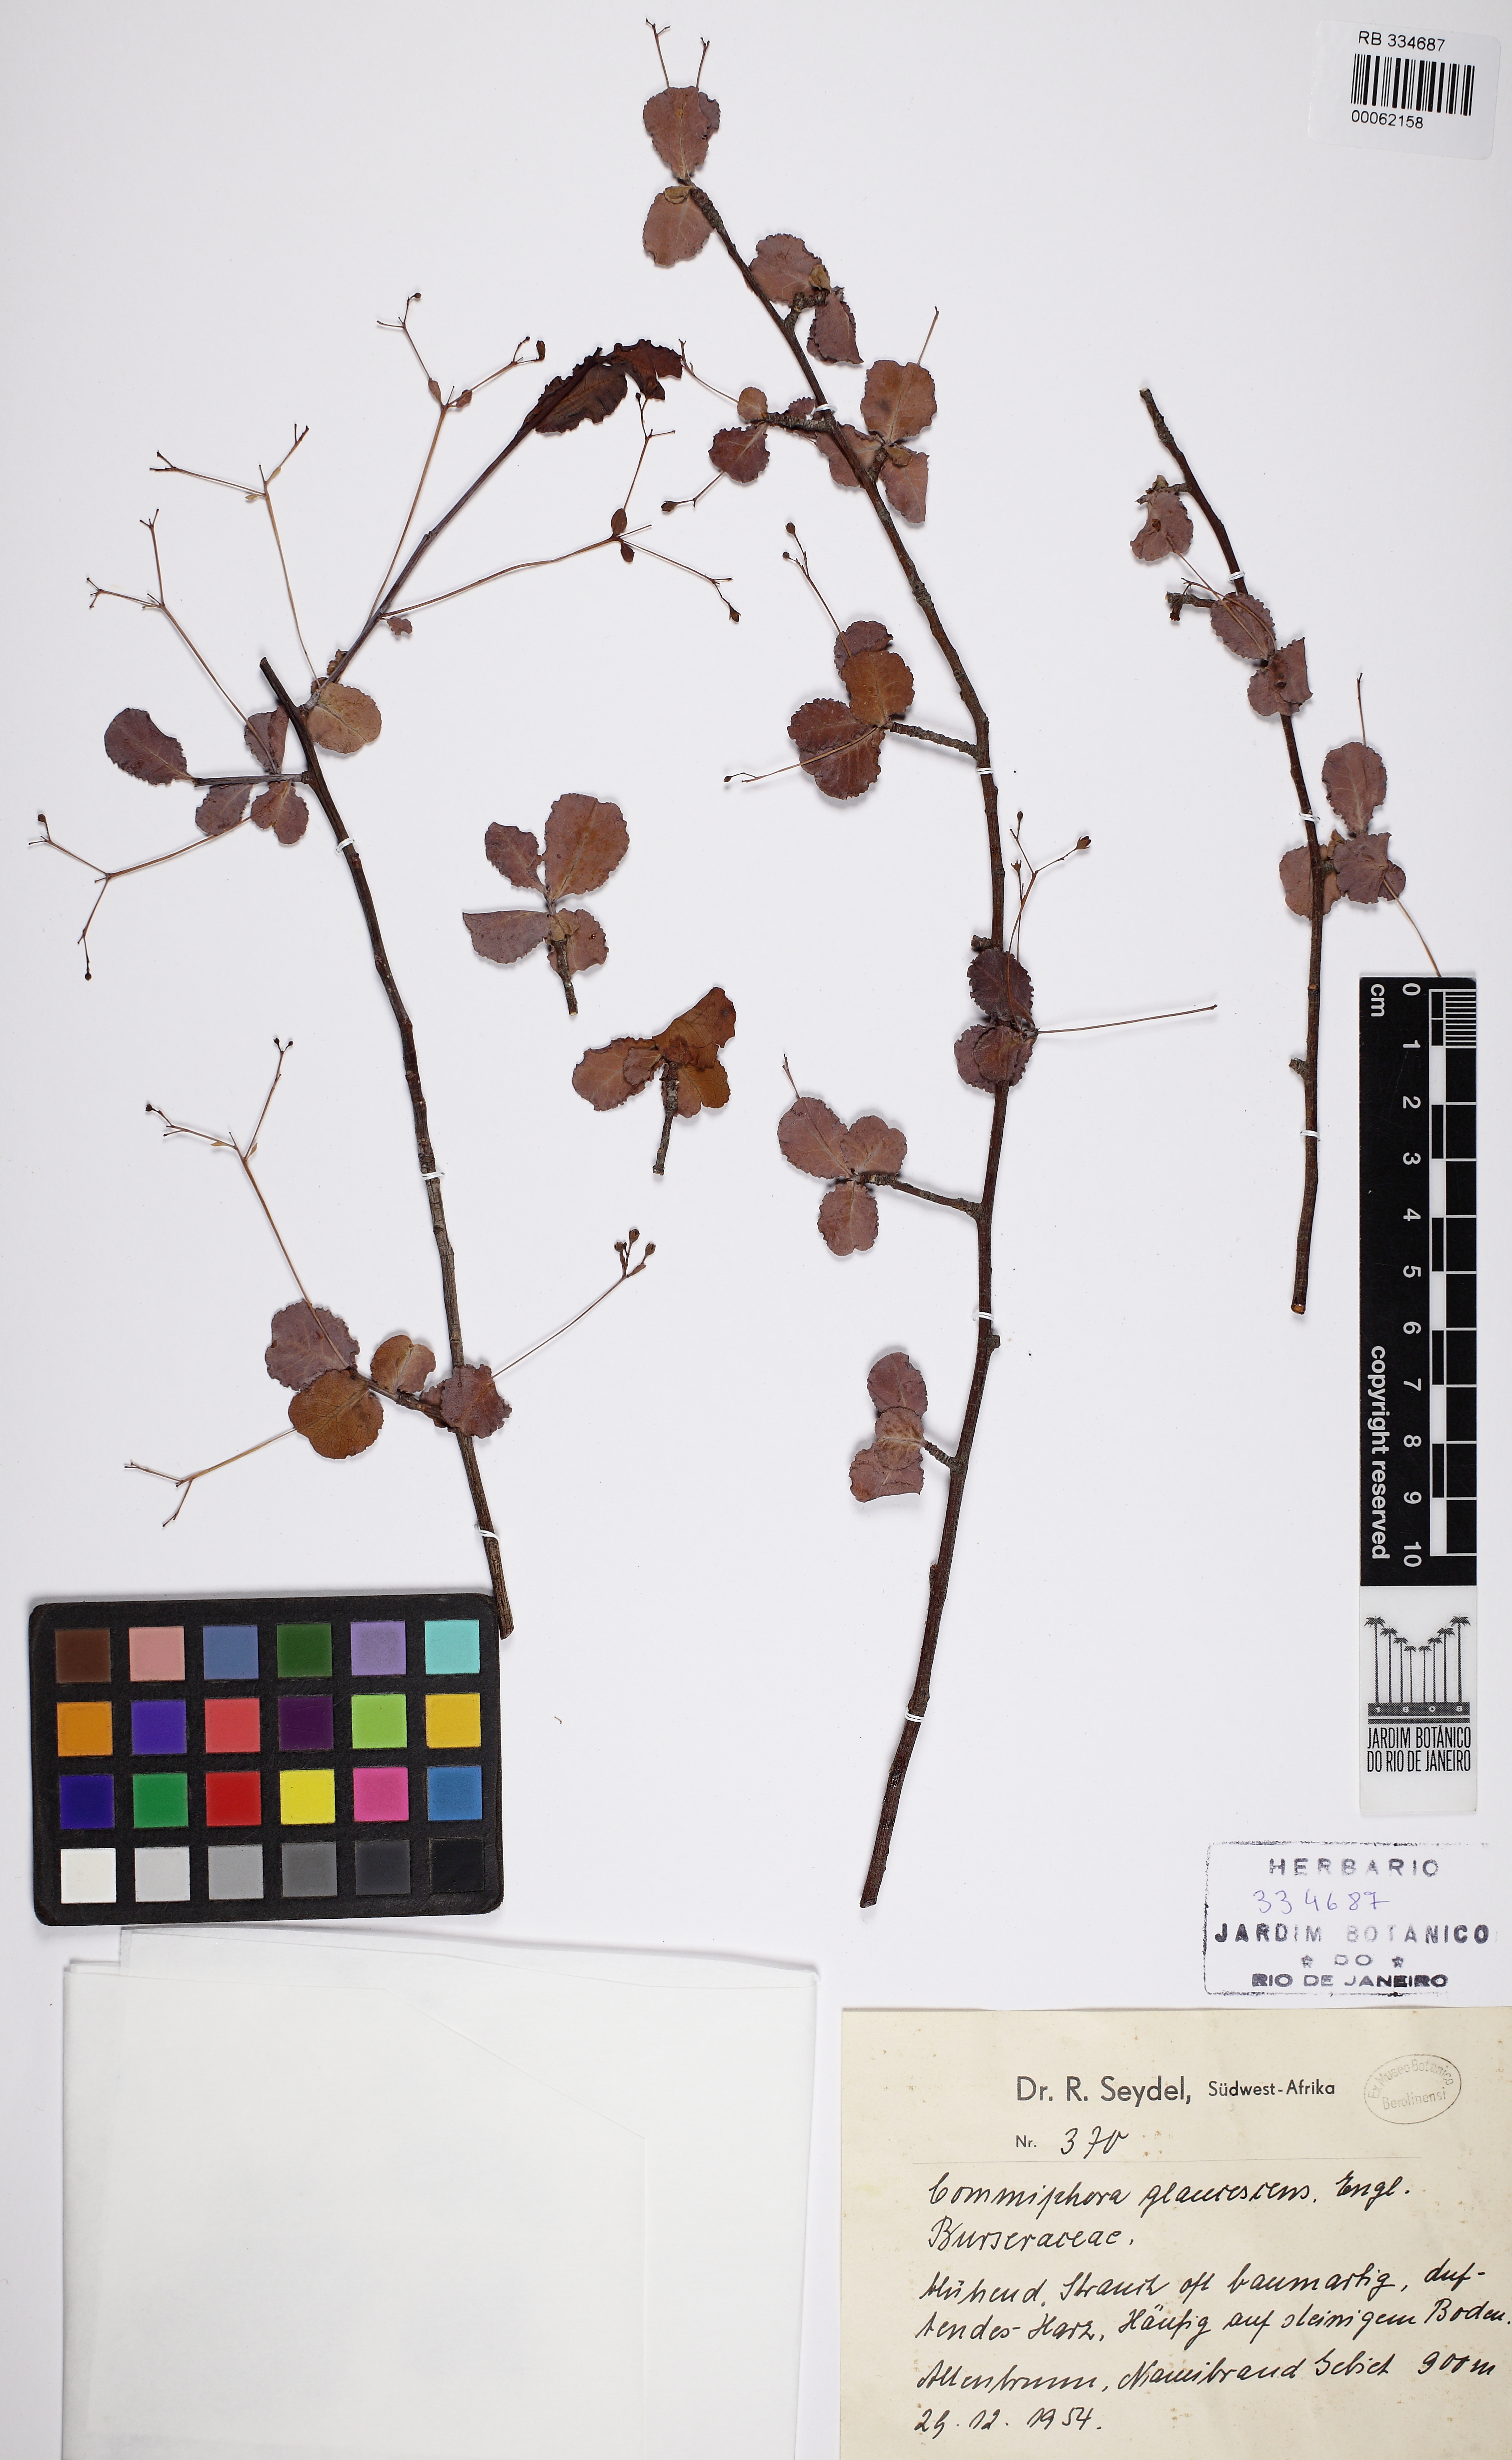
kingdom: Plantae
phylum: Tracheophyta
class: Magnoliopsida
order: Sapindales
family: Burseraceae
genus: Commiphora
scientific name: Commiphora glaucescens
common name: Blue-leaved corkwood
